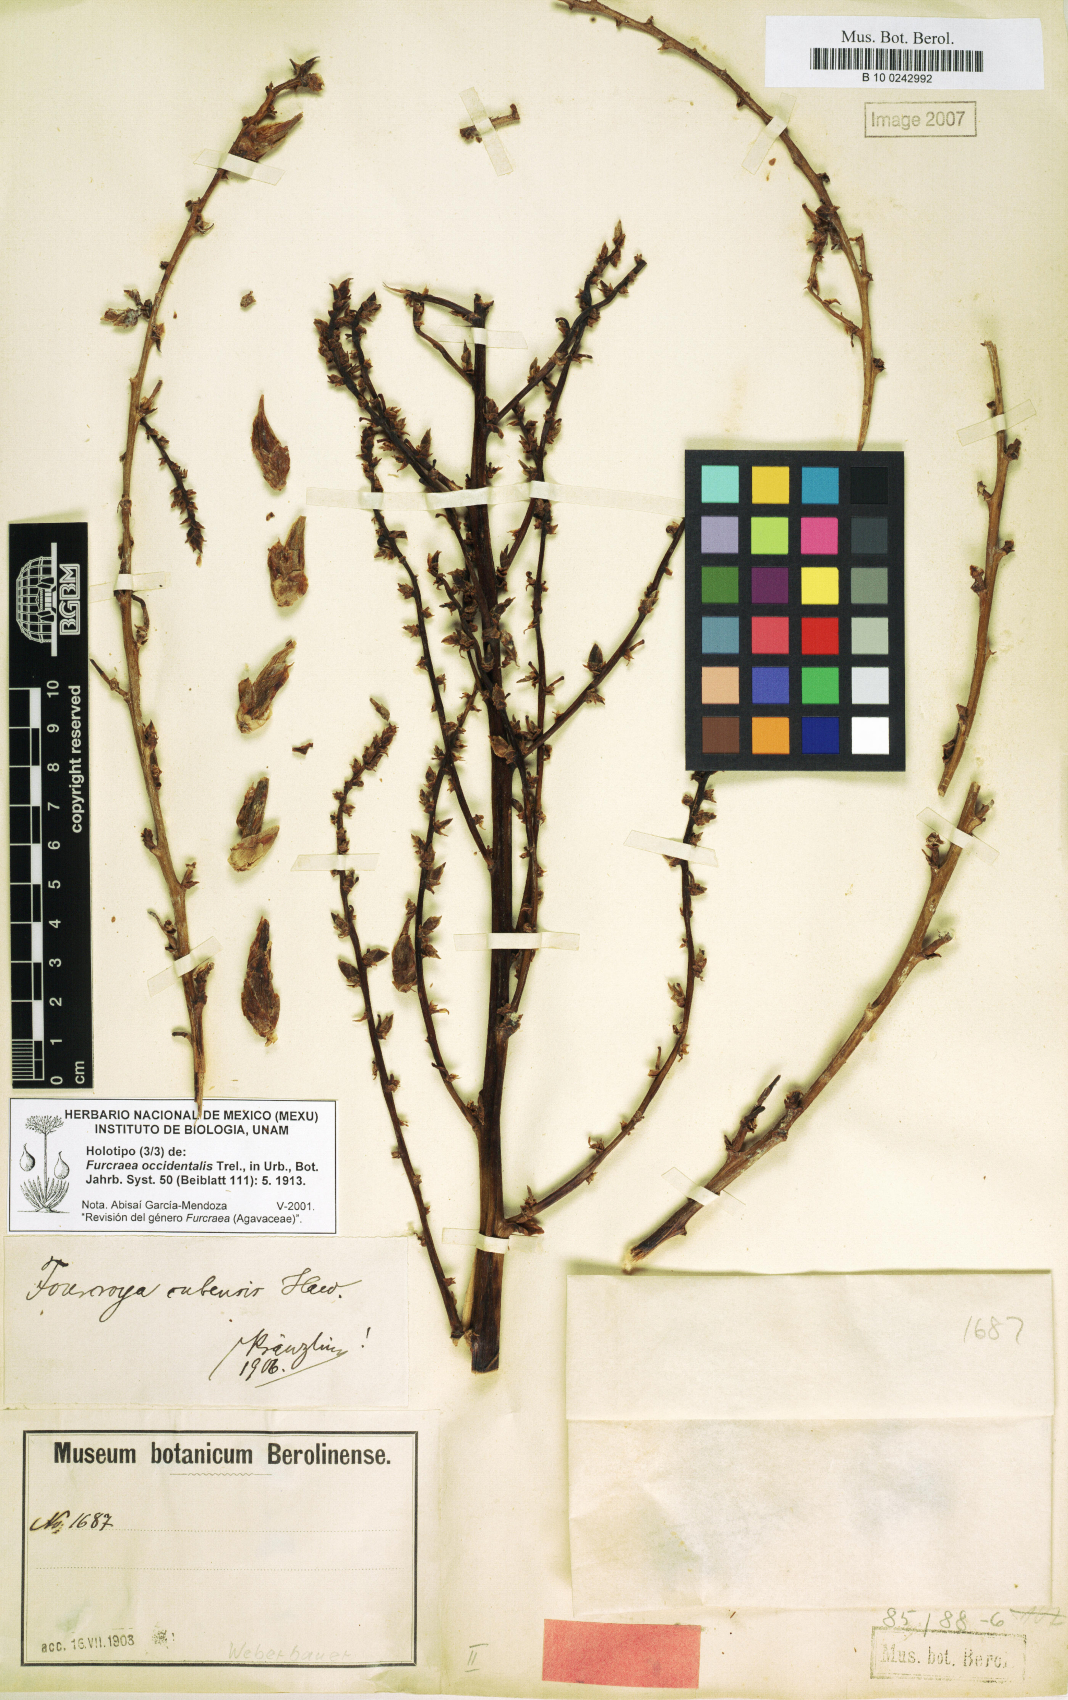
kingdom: Plantae
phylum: Tracheophyta
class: Liliopsida
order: Asparagales
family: Asparagaceae
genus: Furcraea
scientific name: Furcraea occidentalis
